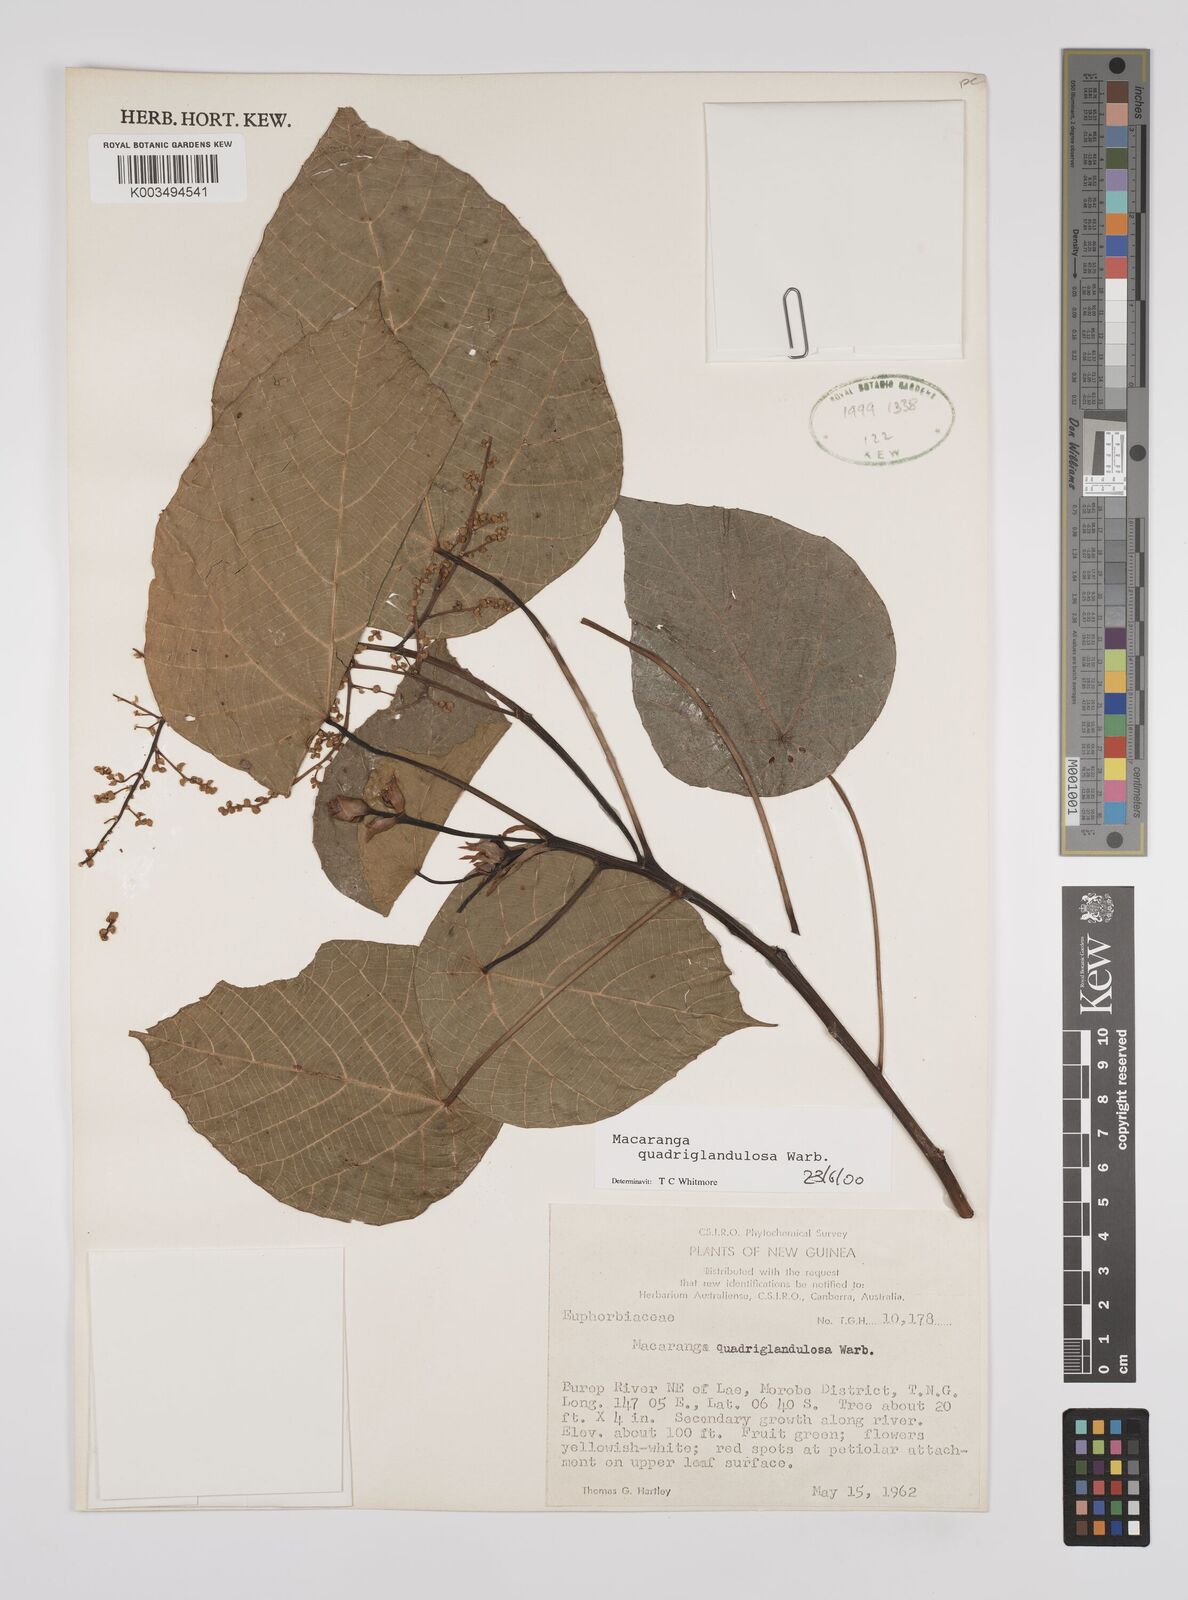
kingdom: Plantae
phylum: Tracheophyta
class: Magnoliopsida
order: Malpighiales
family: Euphorbiaceae
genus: Macaranga
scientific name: Macaranga quadriglandulosa
